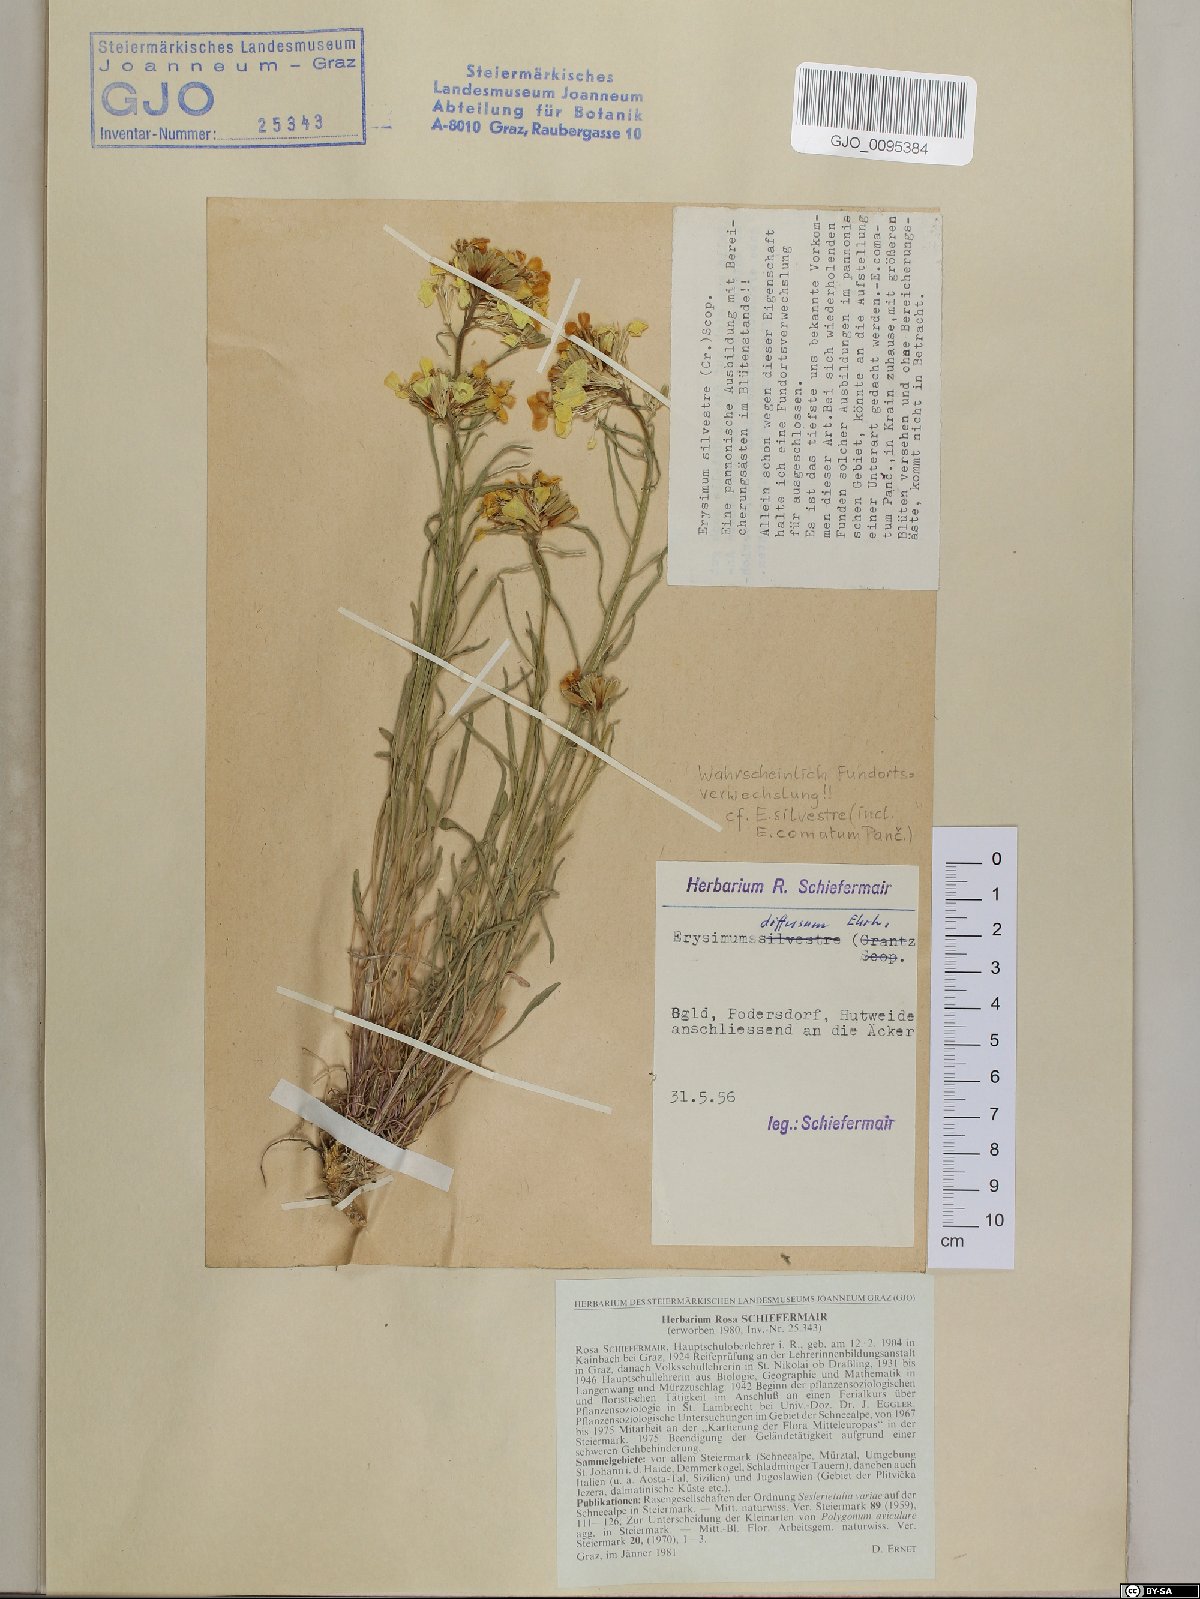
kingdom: Plantae
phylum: Tracheophyta
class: Magnoliopsida
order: Brassicales
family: Brassicaceae
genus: Erysimum
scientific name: Erysimum sylvestre
